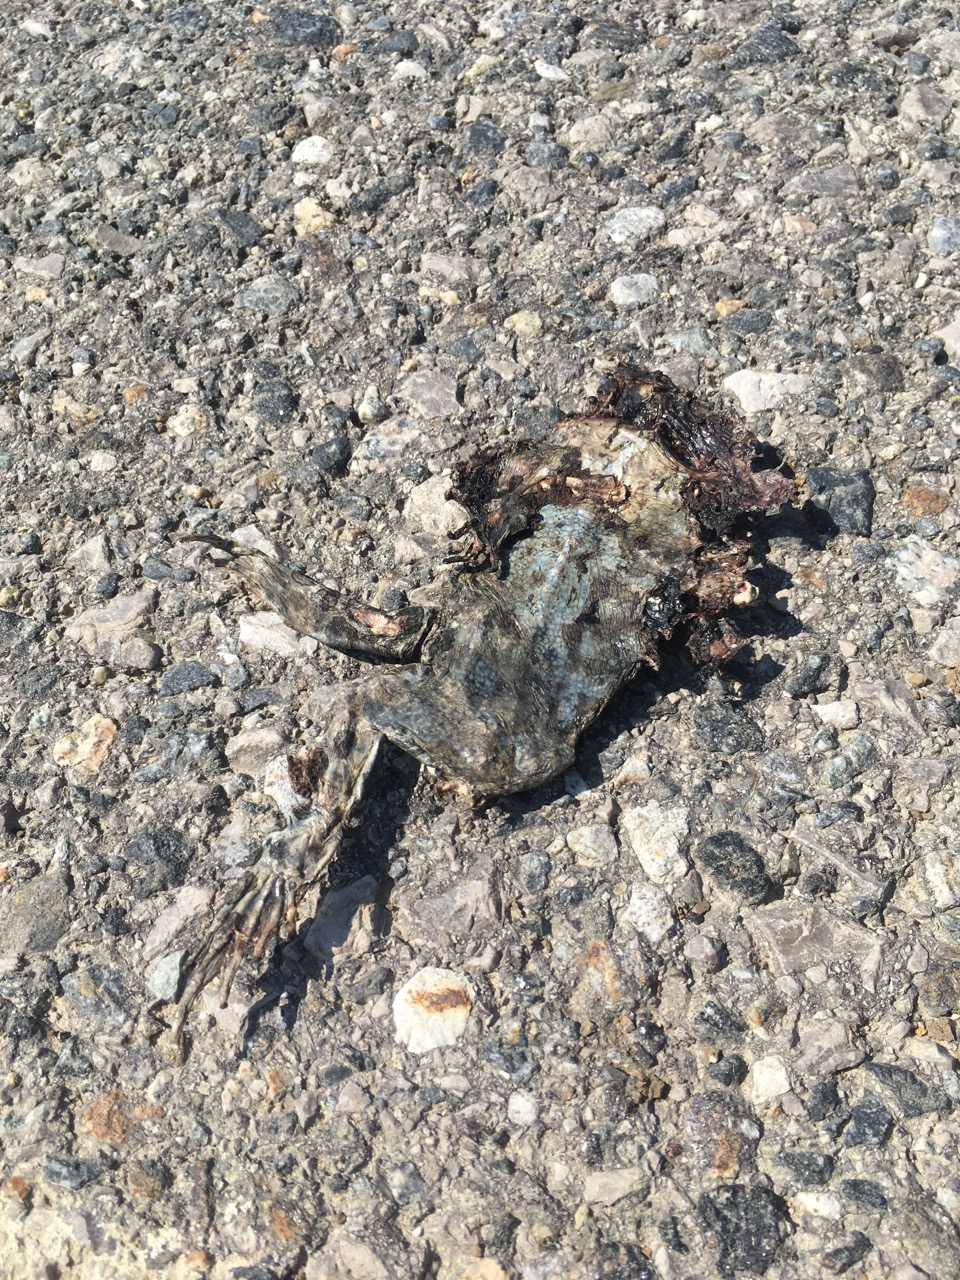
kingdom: Animalia
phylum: Chordata
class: Amphibia
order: Anura
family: Bufonidae
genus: Bufotes
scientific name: Bufotes viridis
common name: European green toad
